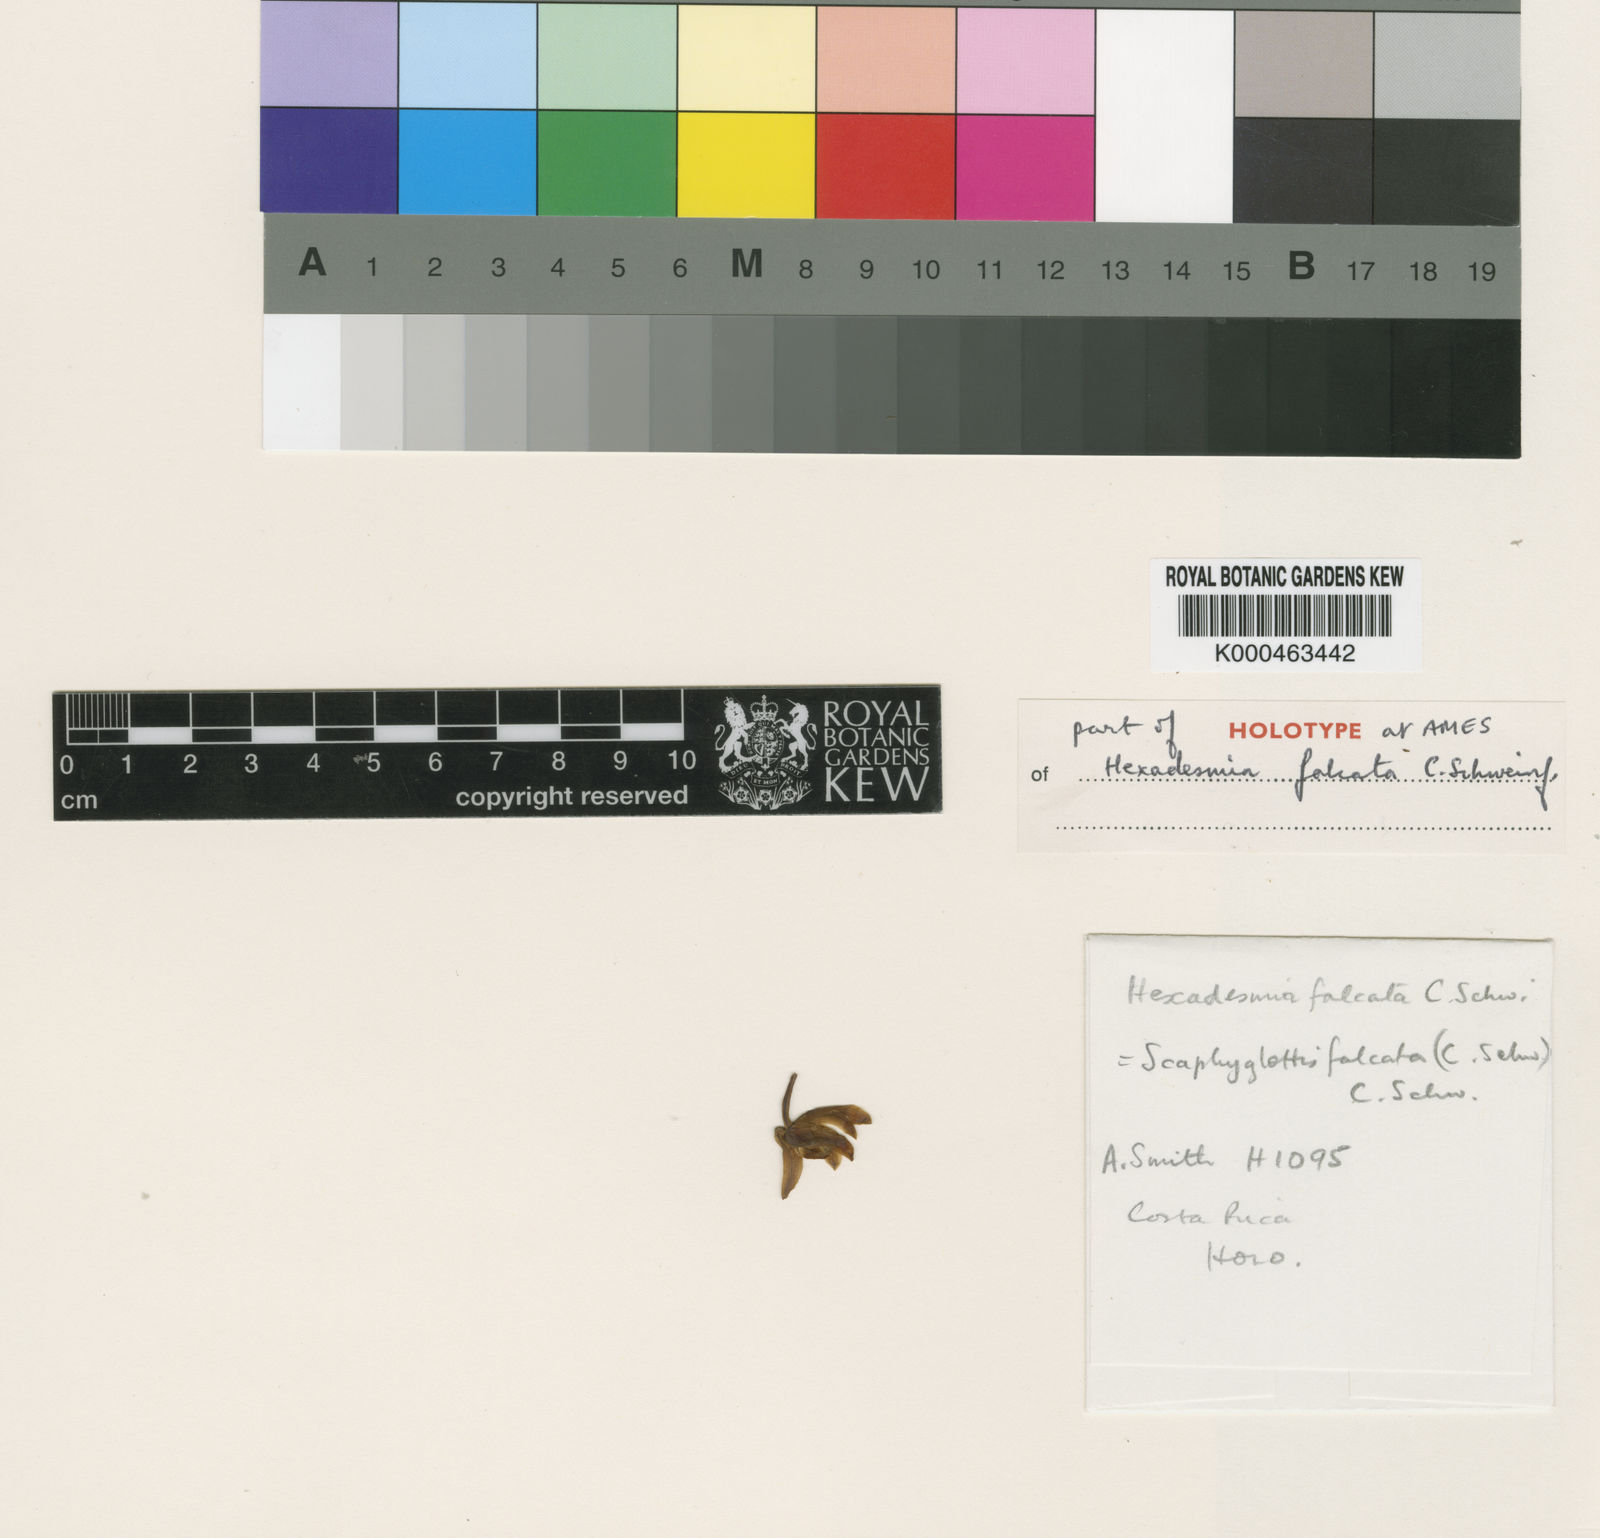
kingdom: Plantae
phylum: Tracheophyta
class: Liliopsida
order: Asparagales
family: Orchidaceae
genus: Scaphyglottis
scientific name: Scaphyglottis bifida
